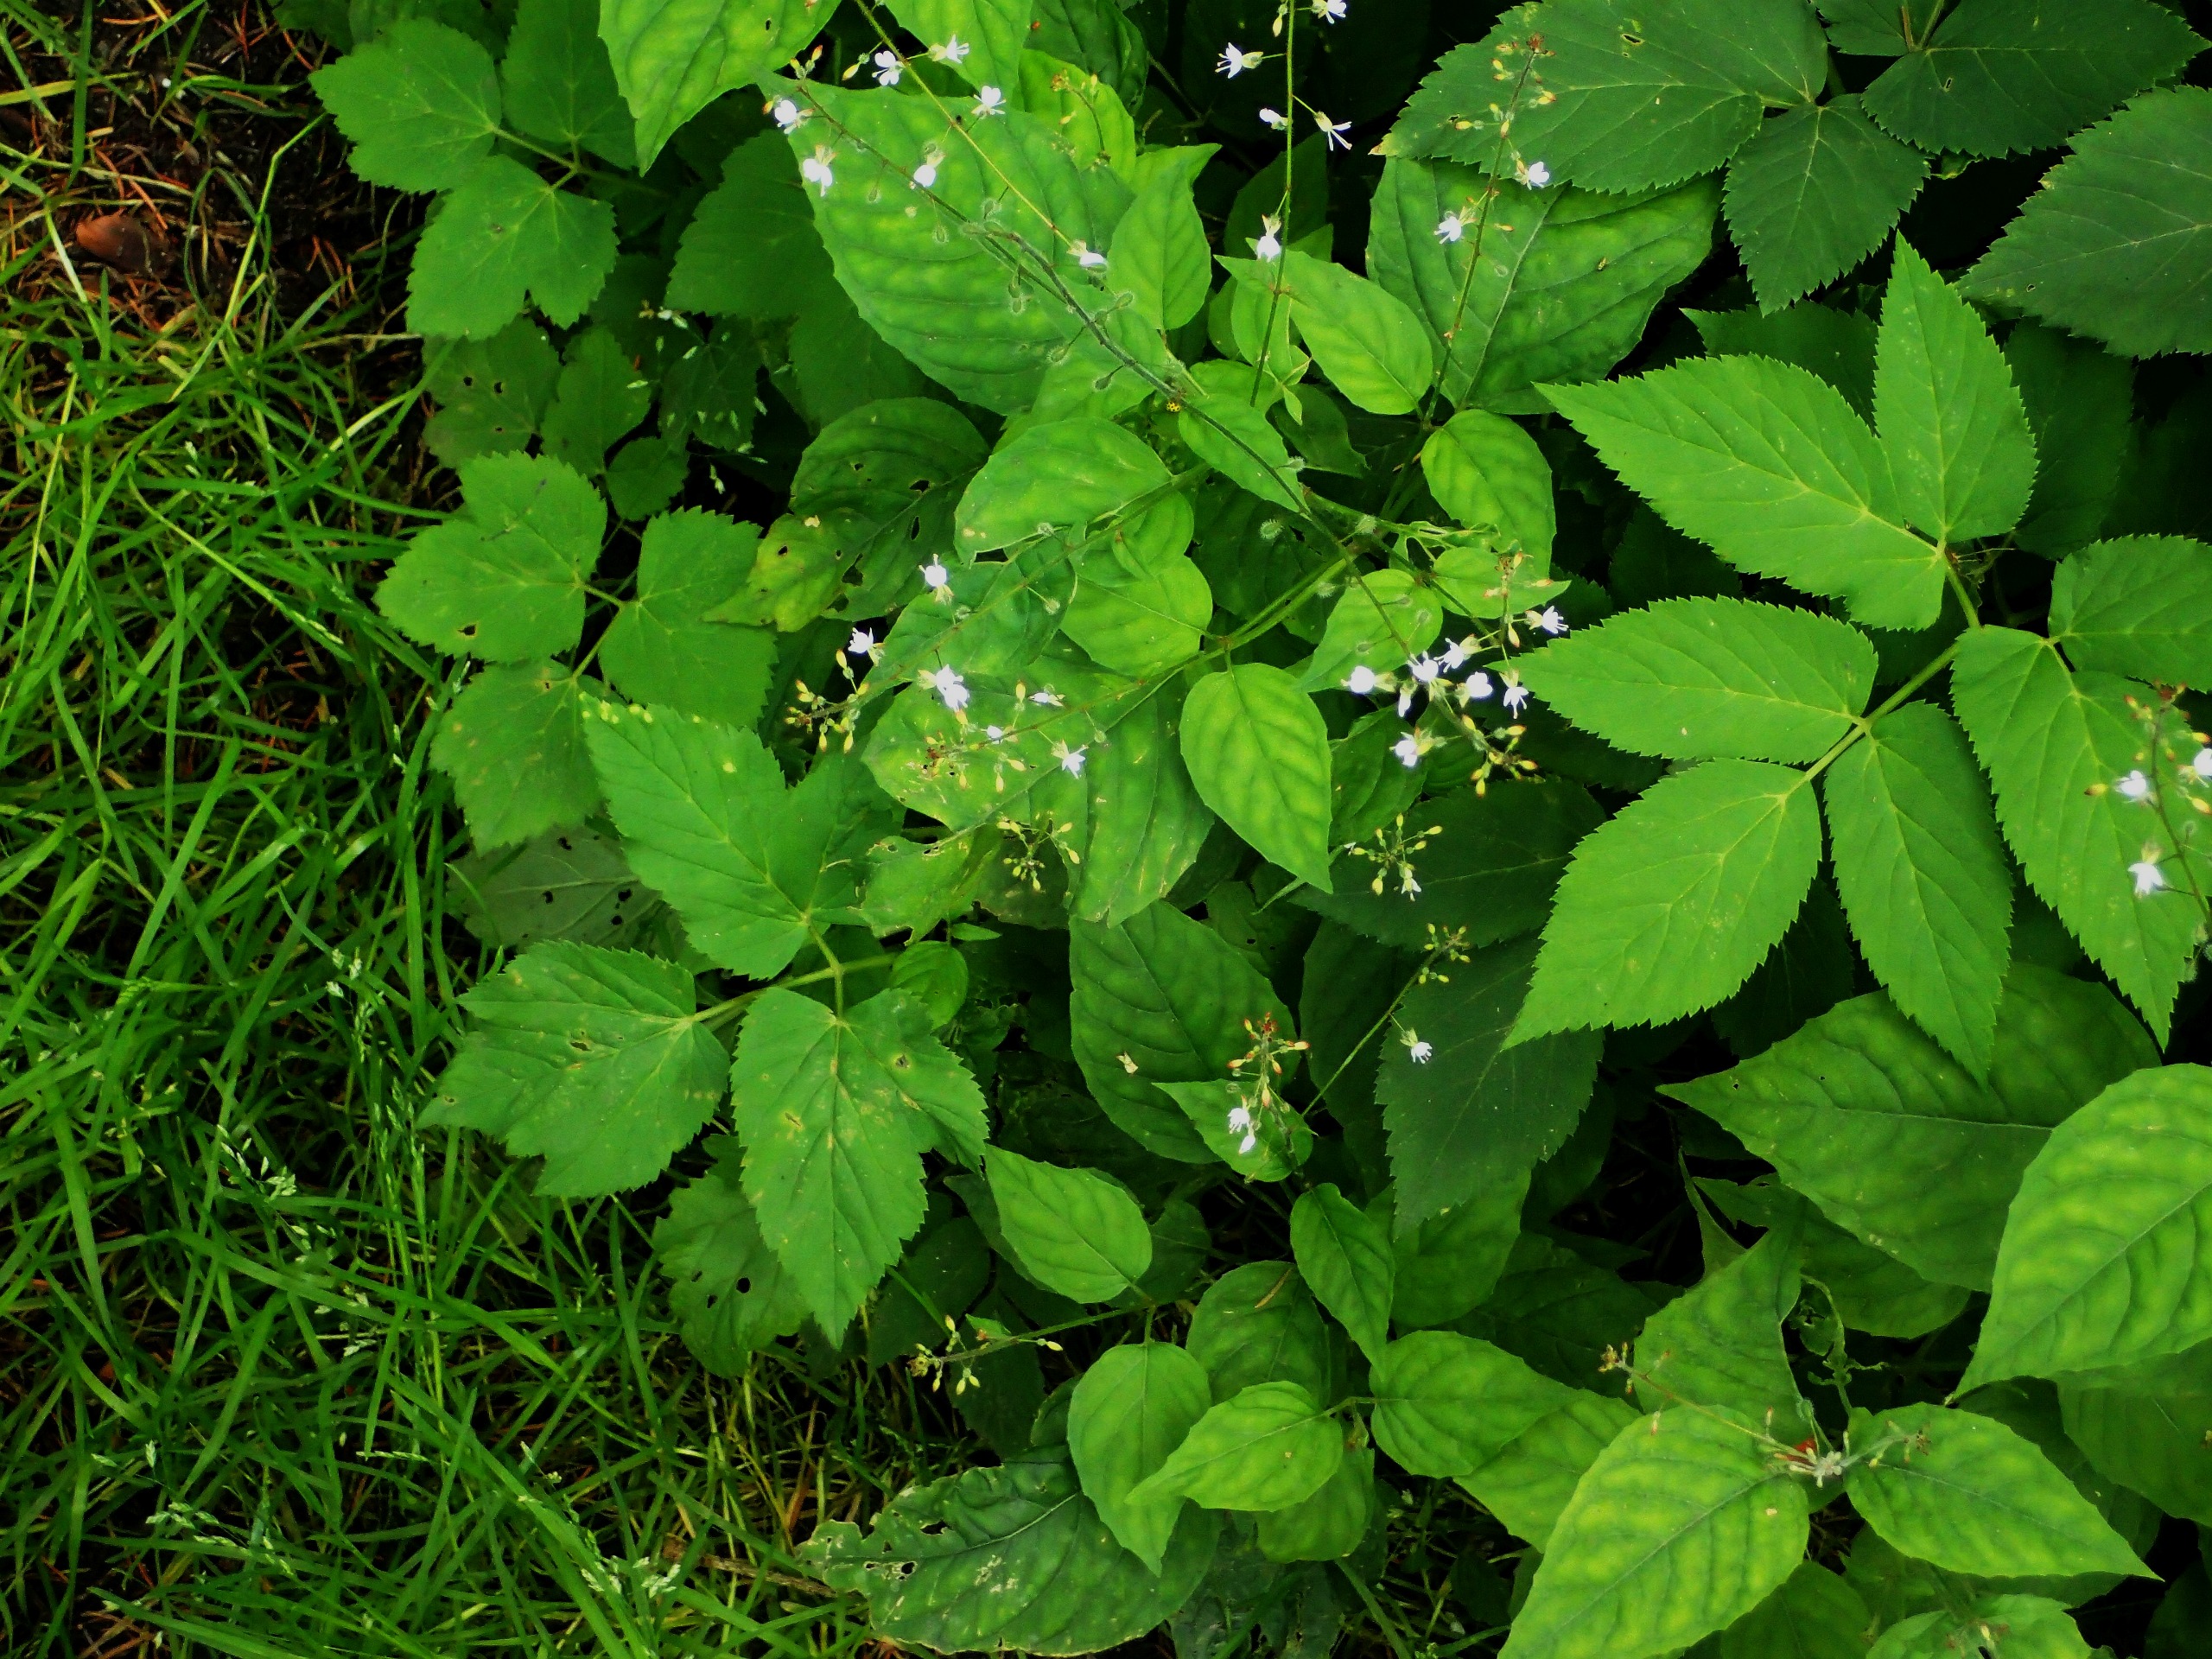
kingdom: Plantae
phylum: Tracheophyta
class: Magnoliopsida
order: Myrtales
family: Onagraceae
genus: Circaea
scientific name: Circaea lutetiana
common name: Dunet steffensurt
